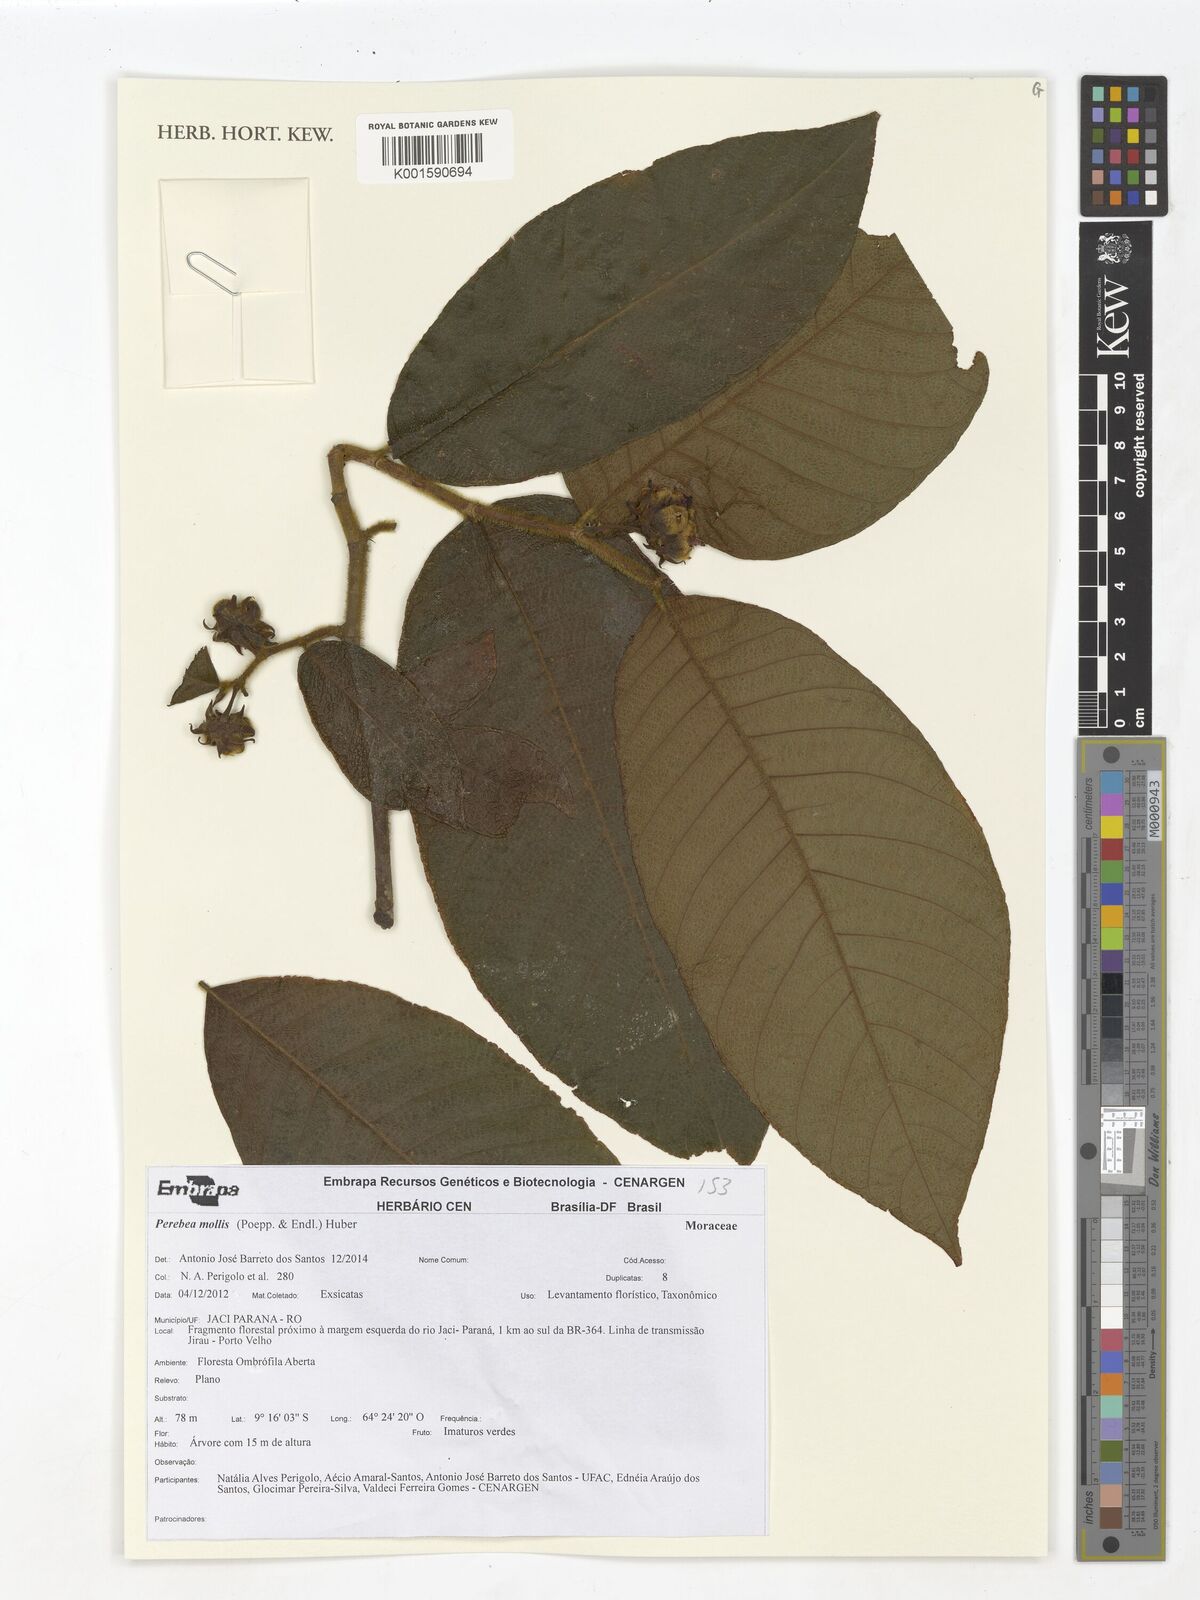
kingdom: Plantae
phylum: Tracheophyta
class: Magnoliopsida
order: Rosales
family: Moraceae
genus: Perebea
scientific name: Perebea mollis
